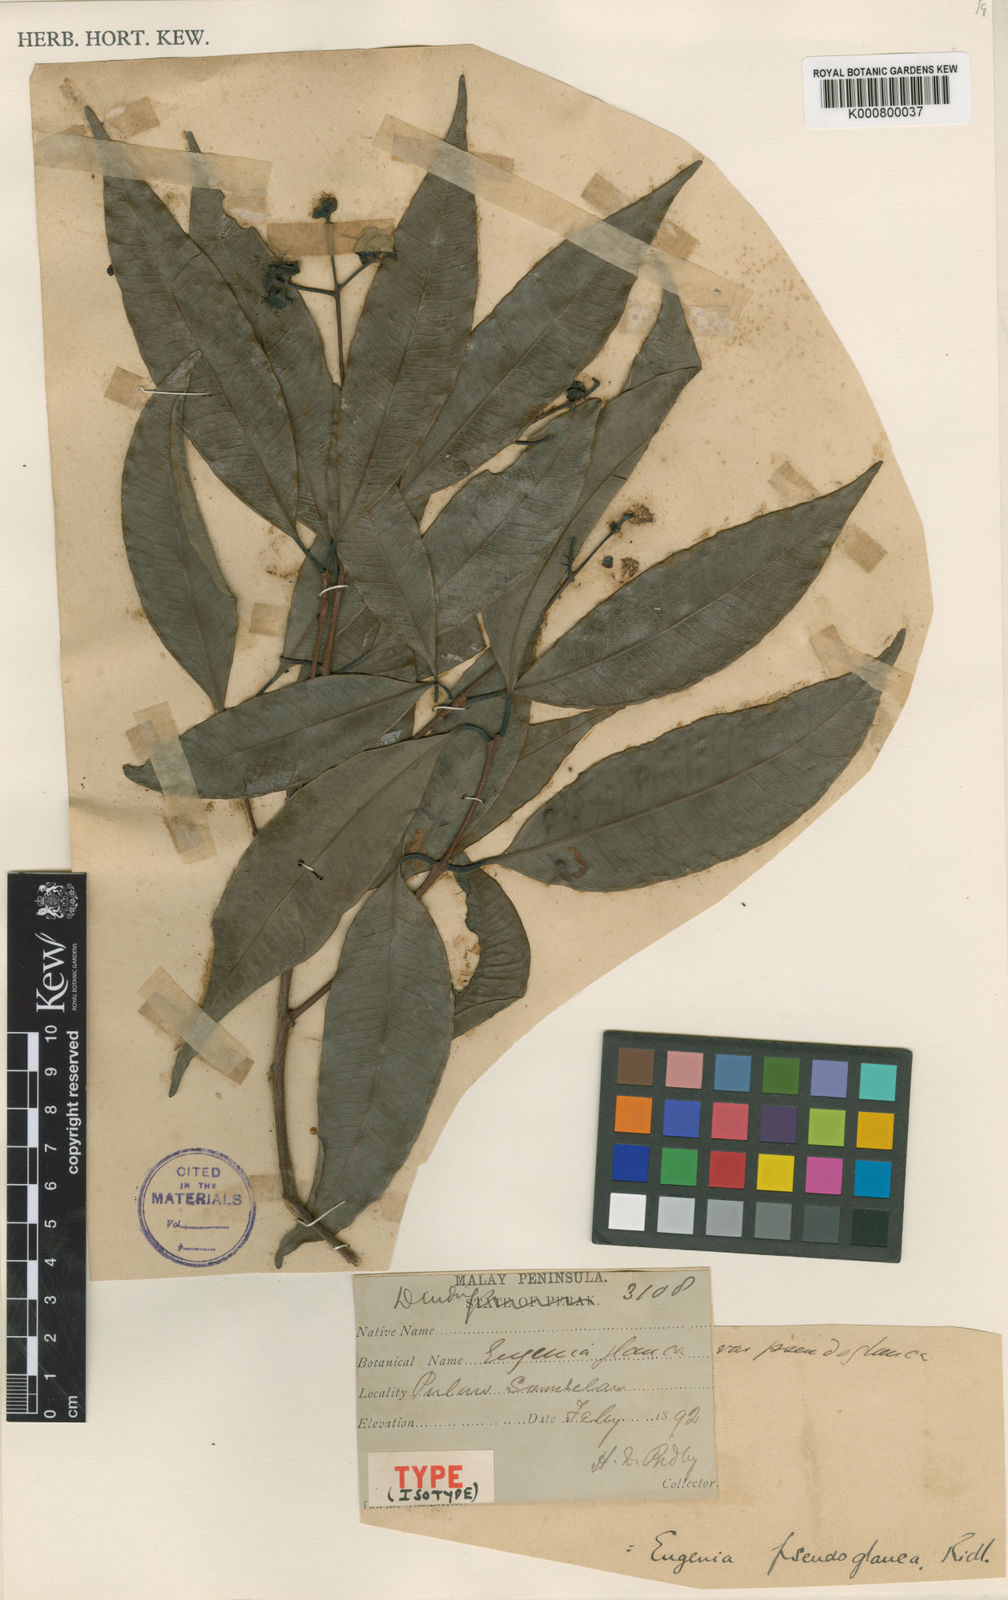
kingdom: Plantae
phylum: Tracheophyta
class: Magnoliopsida
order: Myrtales
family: Myrtaceae
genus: Syzygium
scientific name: Syzygium
